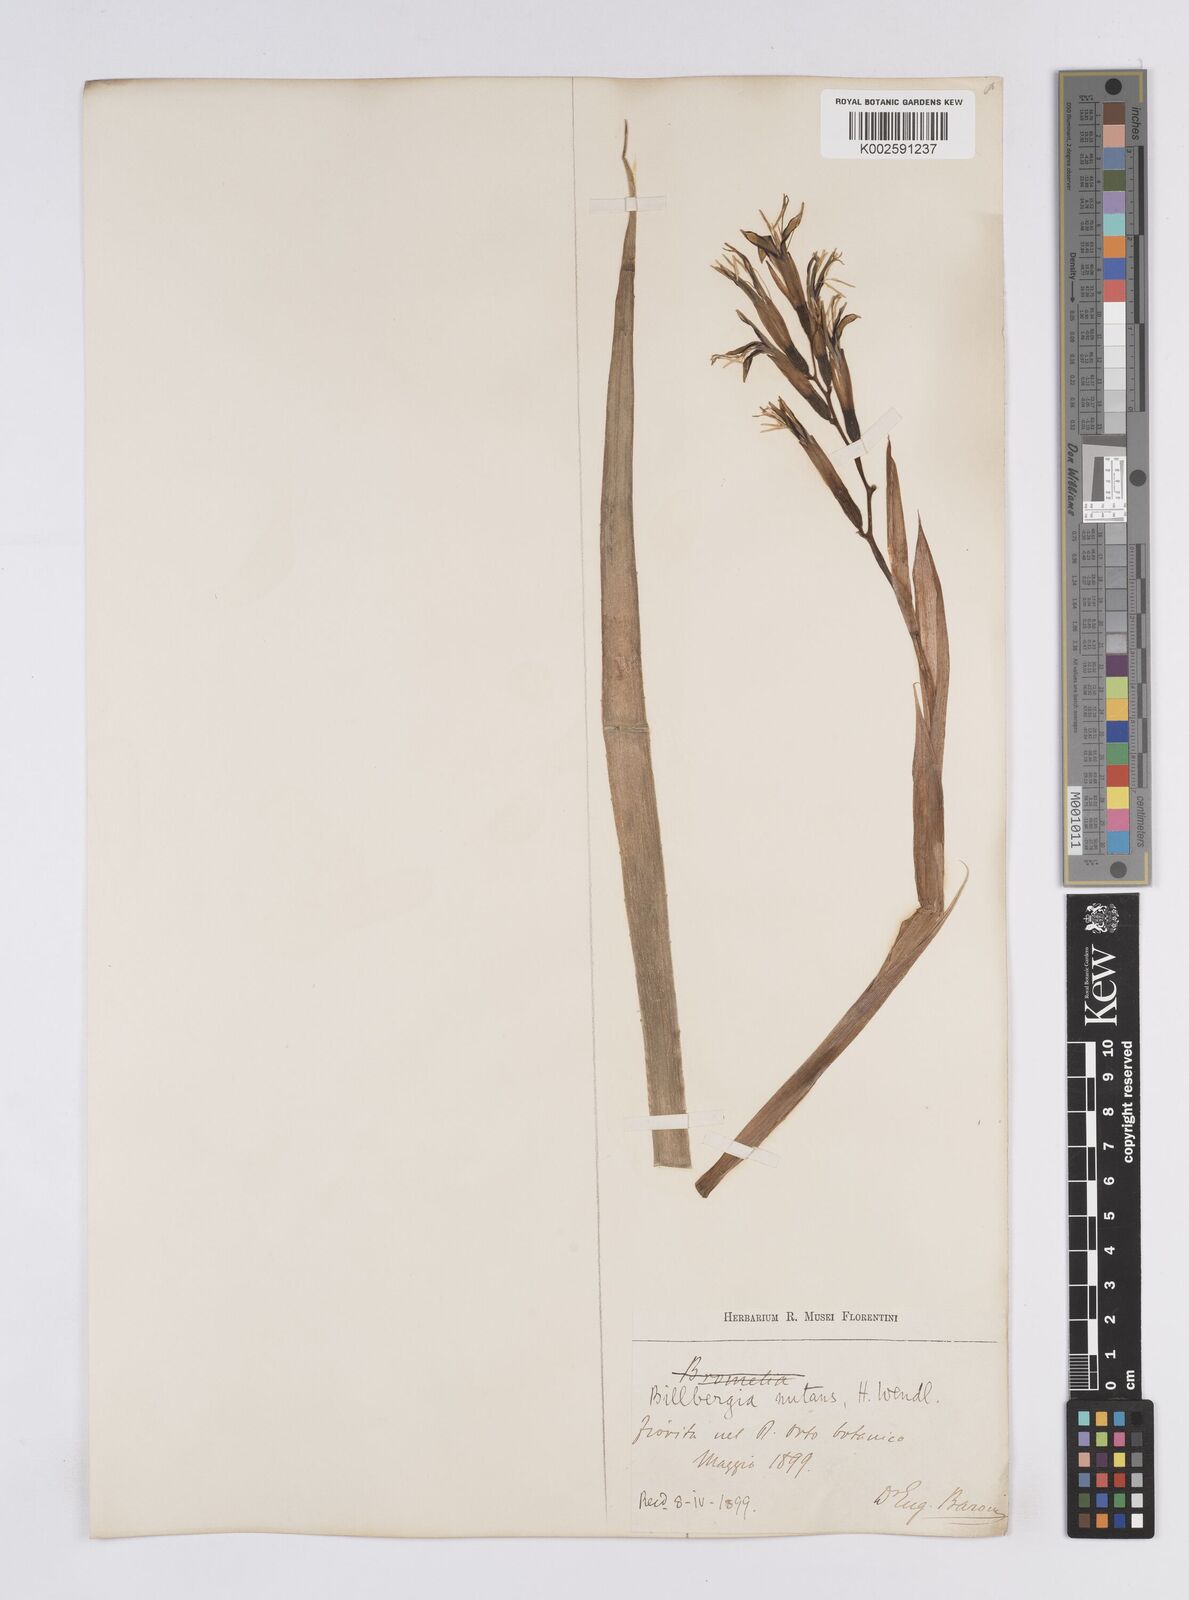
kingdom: Plantae
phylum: Tracheophyta
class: Liliopsida
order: Poales
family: Bromeliaceae
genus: Billbergia
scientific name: Billbergia nutans
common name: Friendship-plant
